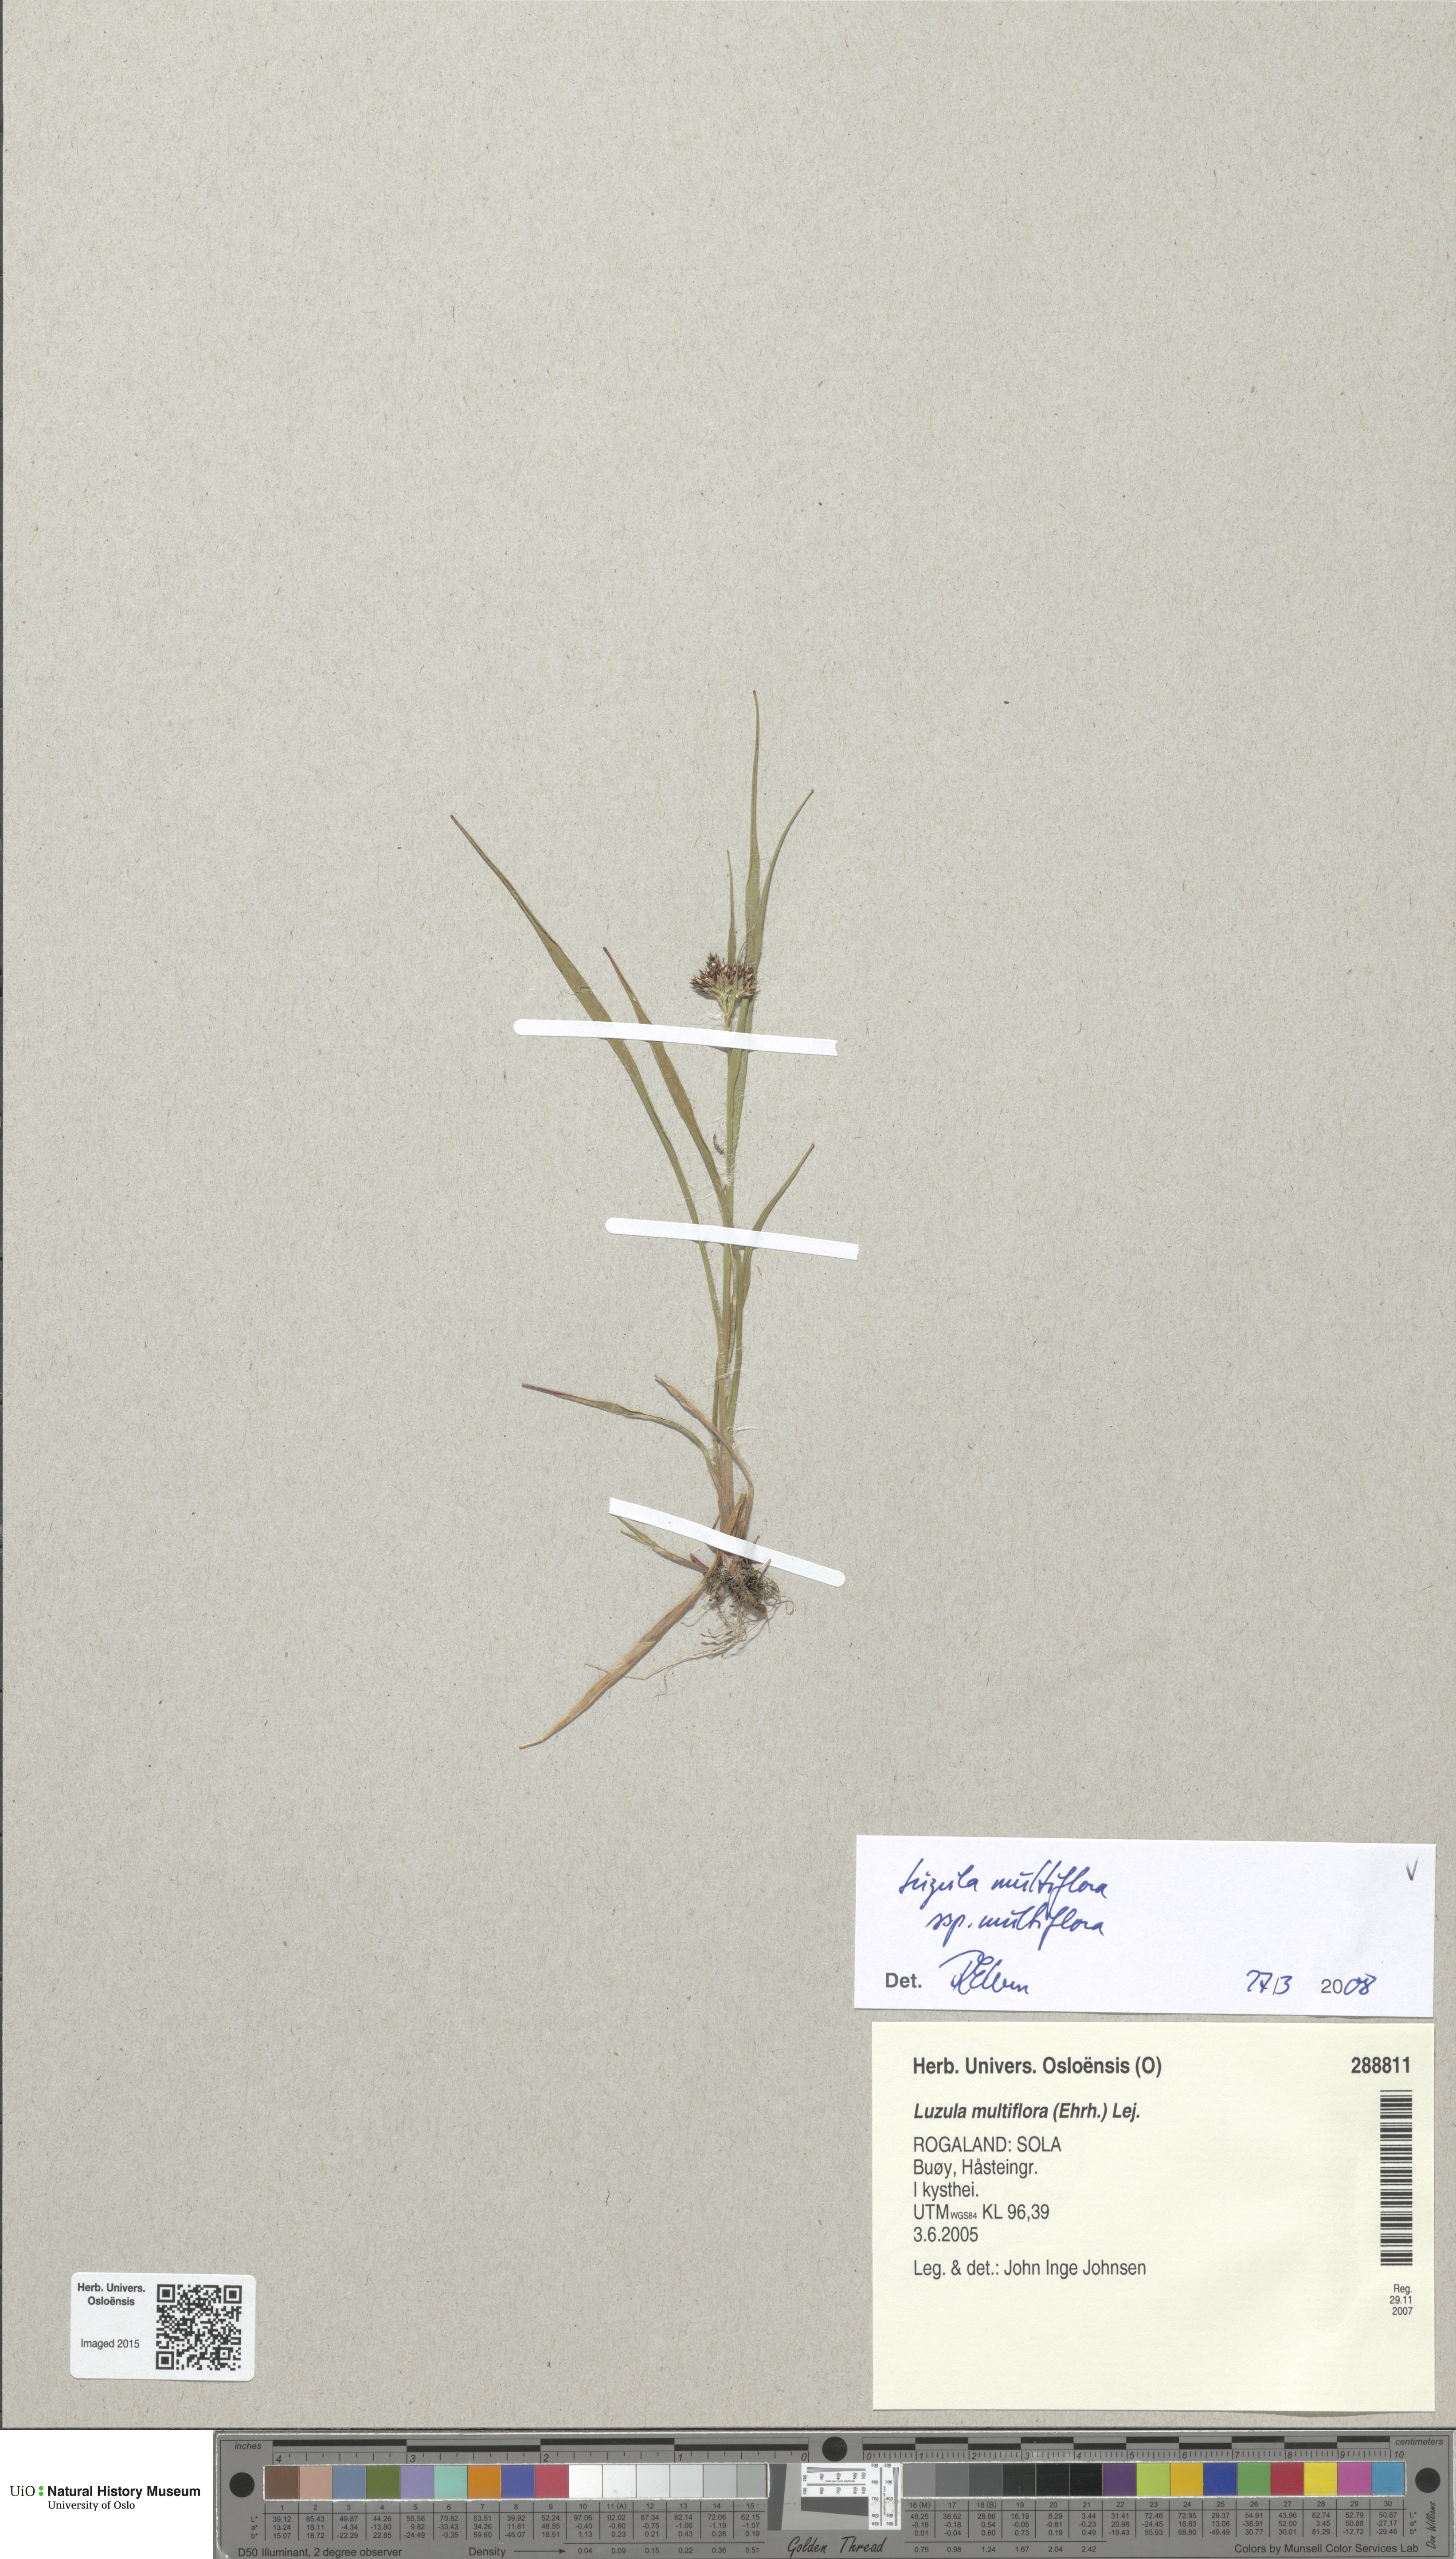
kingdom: Plantae
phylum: Tracheophyta
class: Liliopsida
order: Poales
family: Juncaceae
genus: Luzula
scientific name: Luzula multiflora
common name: Heath wood-rush
